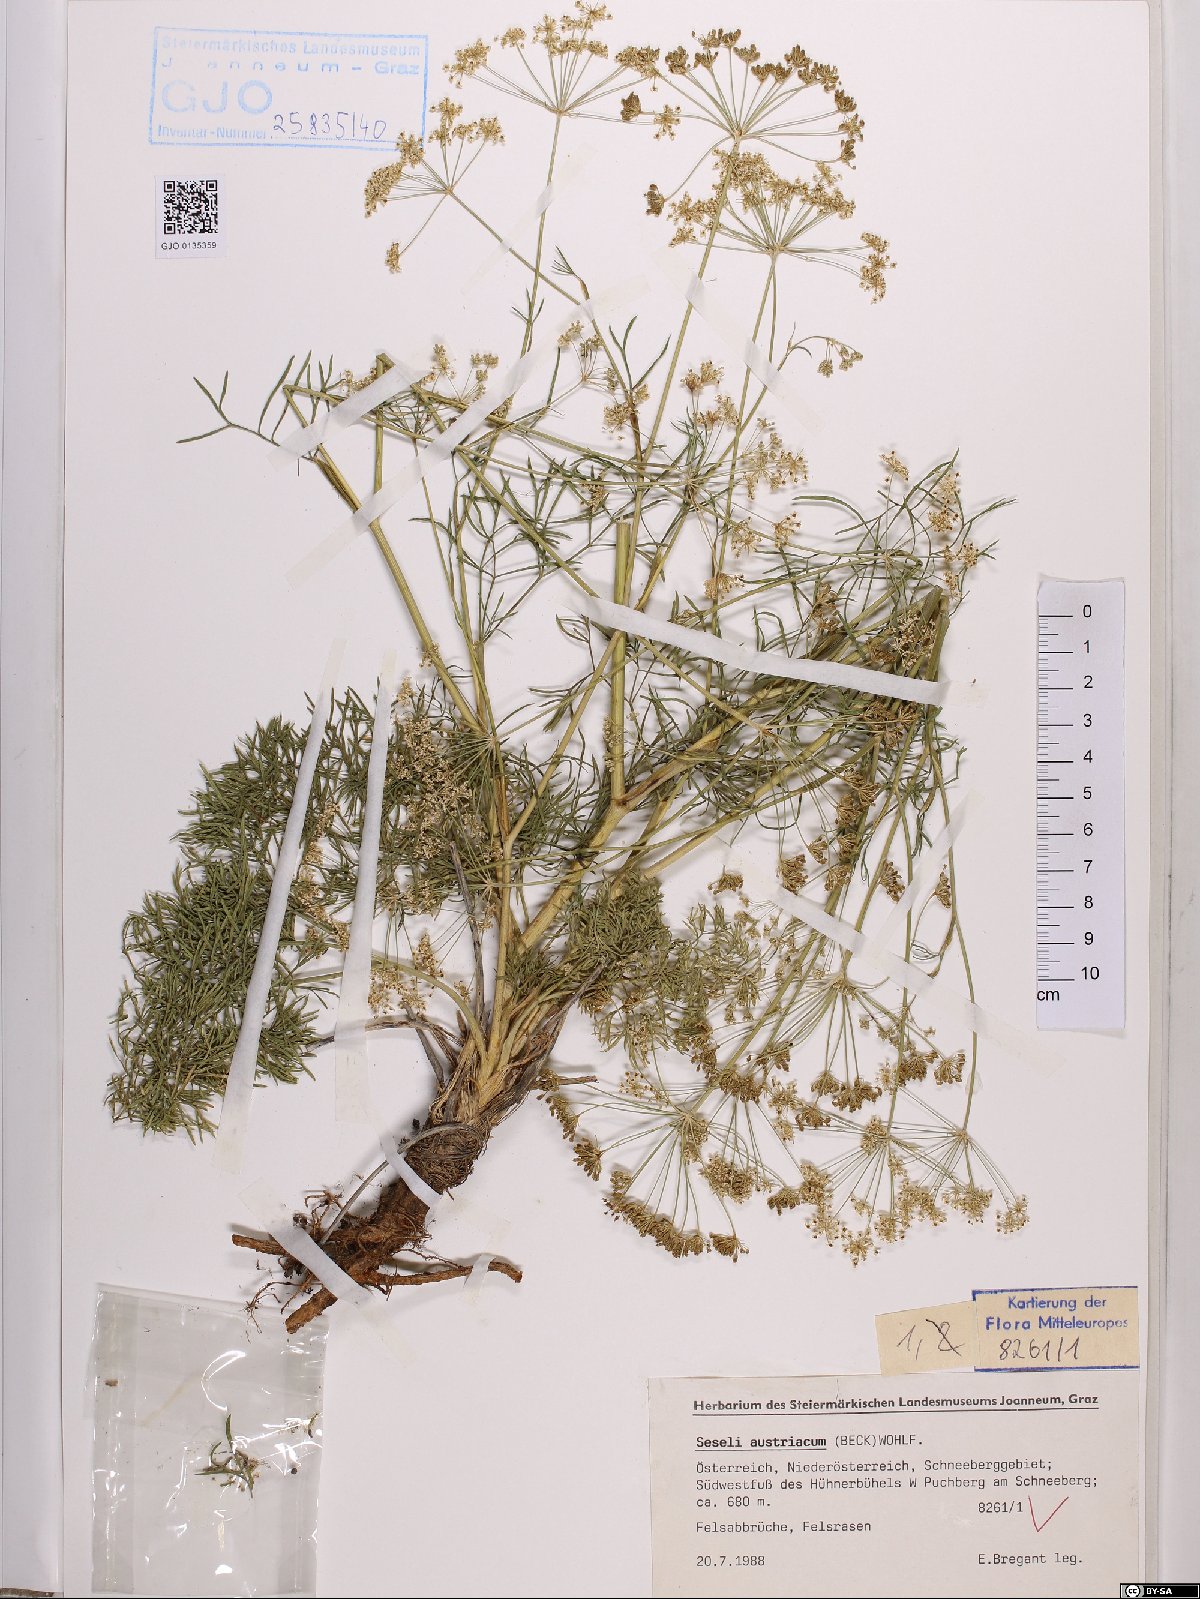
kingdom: Plantae
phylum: Tracheophyta
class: Magnoliopsida
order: Apiales
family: Apiaceae
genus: Seseli
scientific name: Seseli austriacum
